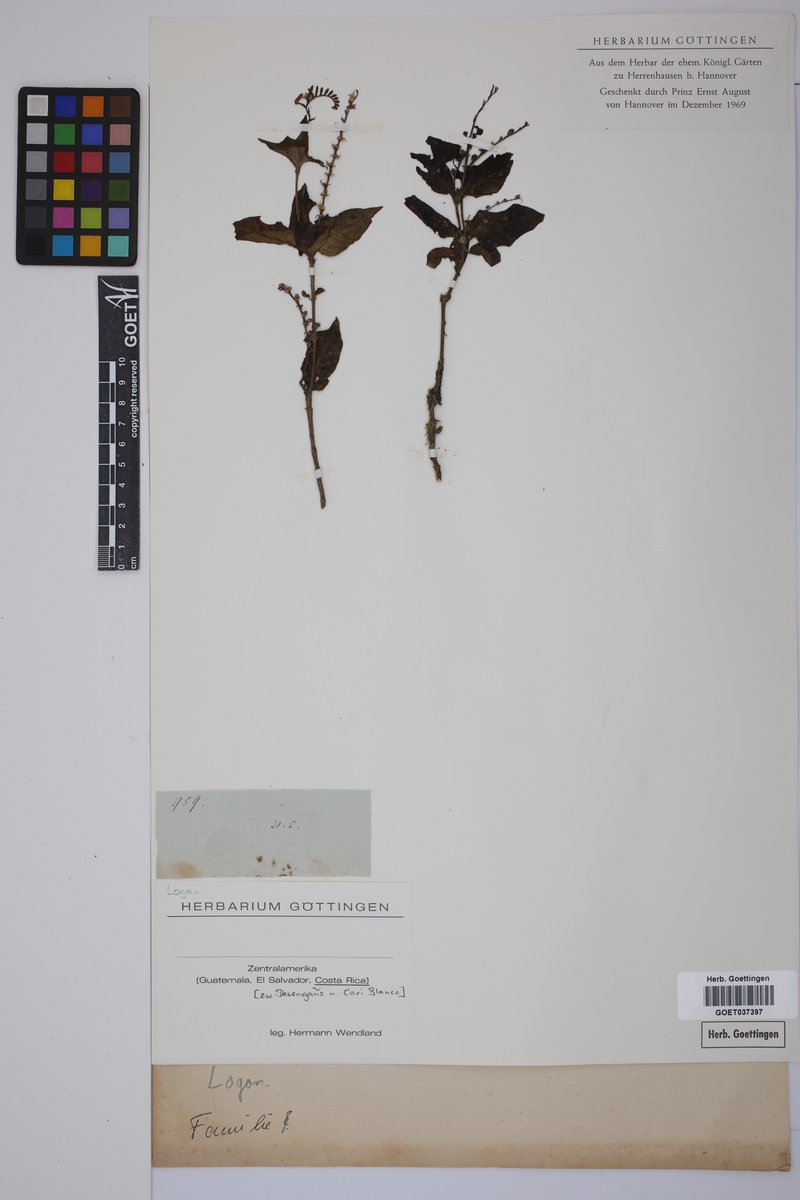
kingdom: Plantae
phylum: Tracheophyta
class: Magnoliopsida
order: Gentianales
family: Loganiaceae
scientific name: Loganiaceae
